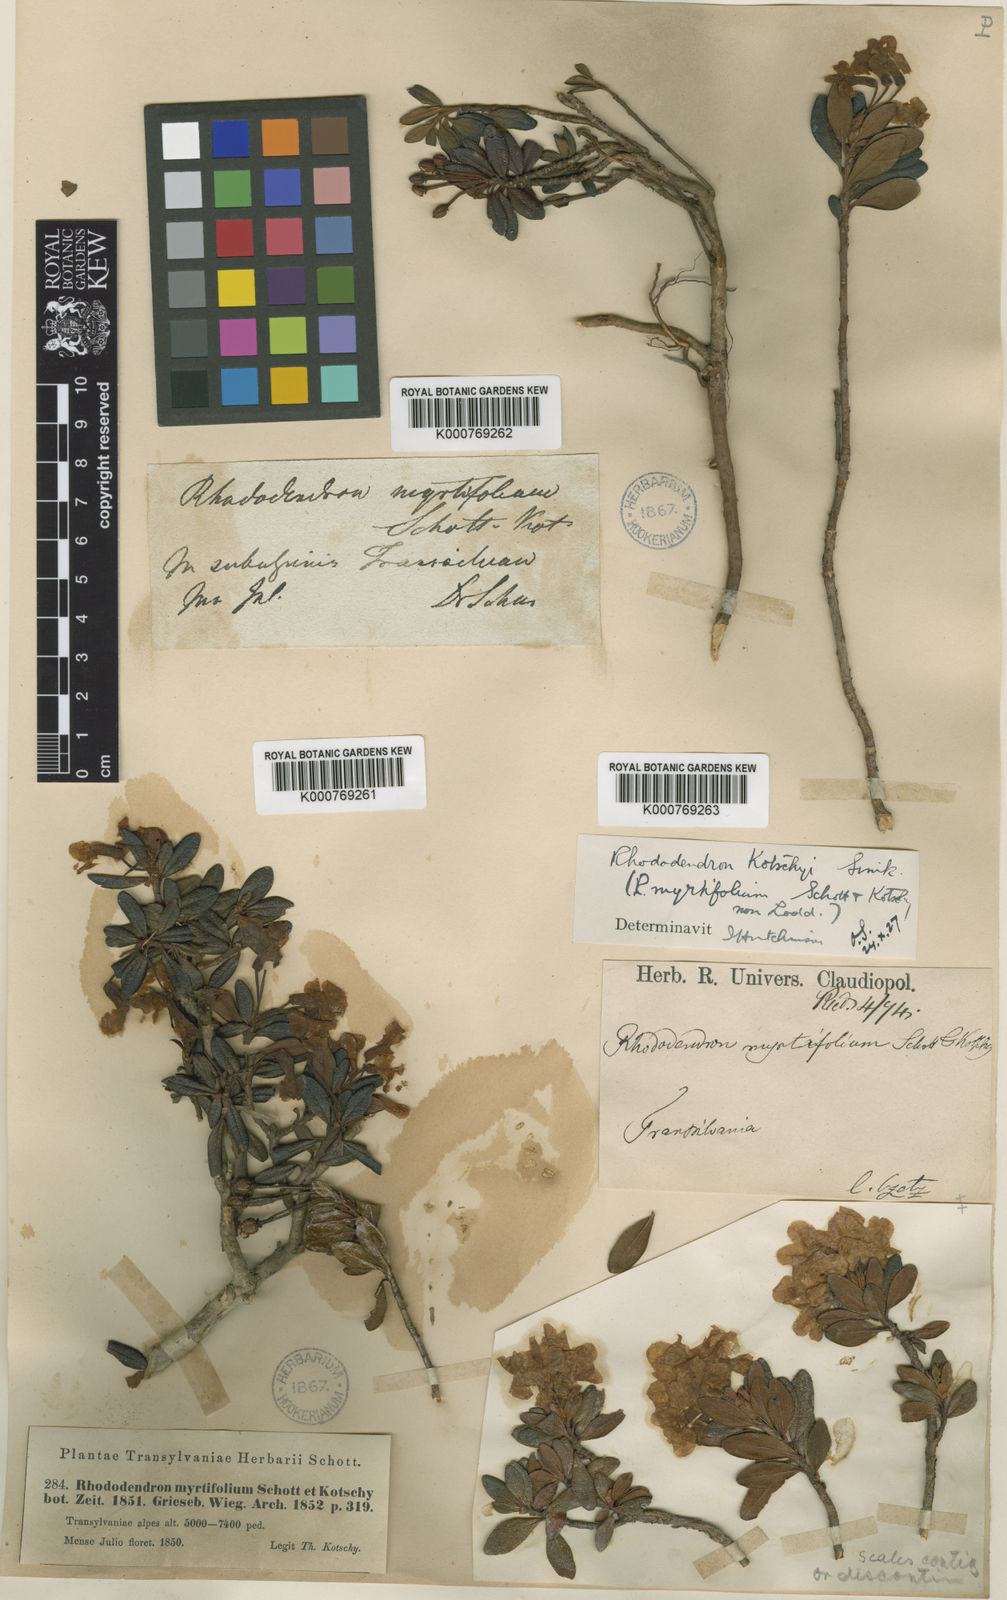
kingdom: Plantae
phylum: Tracheophyta
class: Magnoliopsida
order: Ericales
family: Ericaceae
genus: Rhododendron
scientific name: Rhododendron kotschyi
